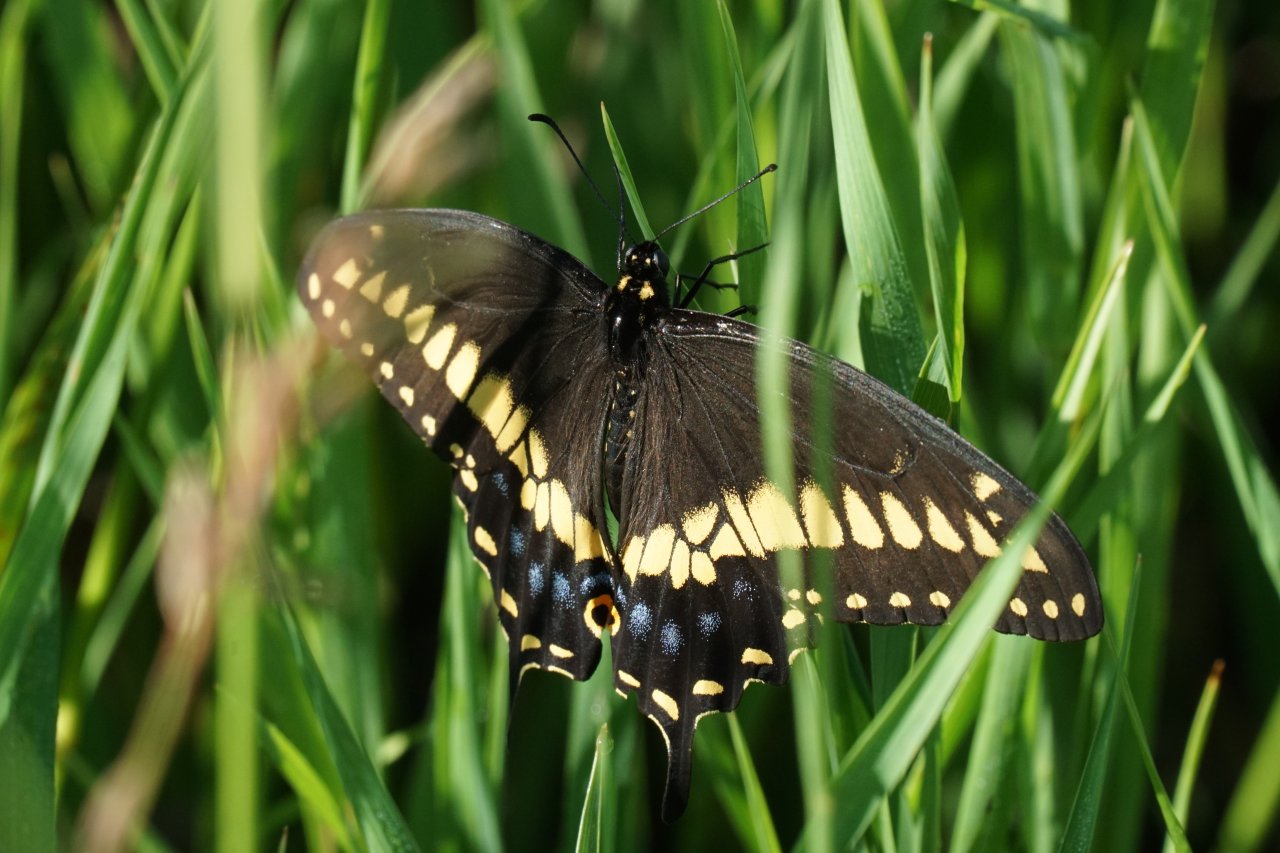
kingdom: Animalia
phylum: Arthropoda
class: Insecta
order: Lepidoptera
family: Papilionidae
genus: Papilio
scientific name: Papilio polyxenes
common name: Black Swallowtail
